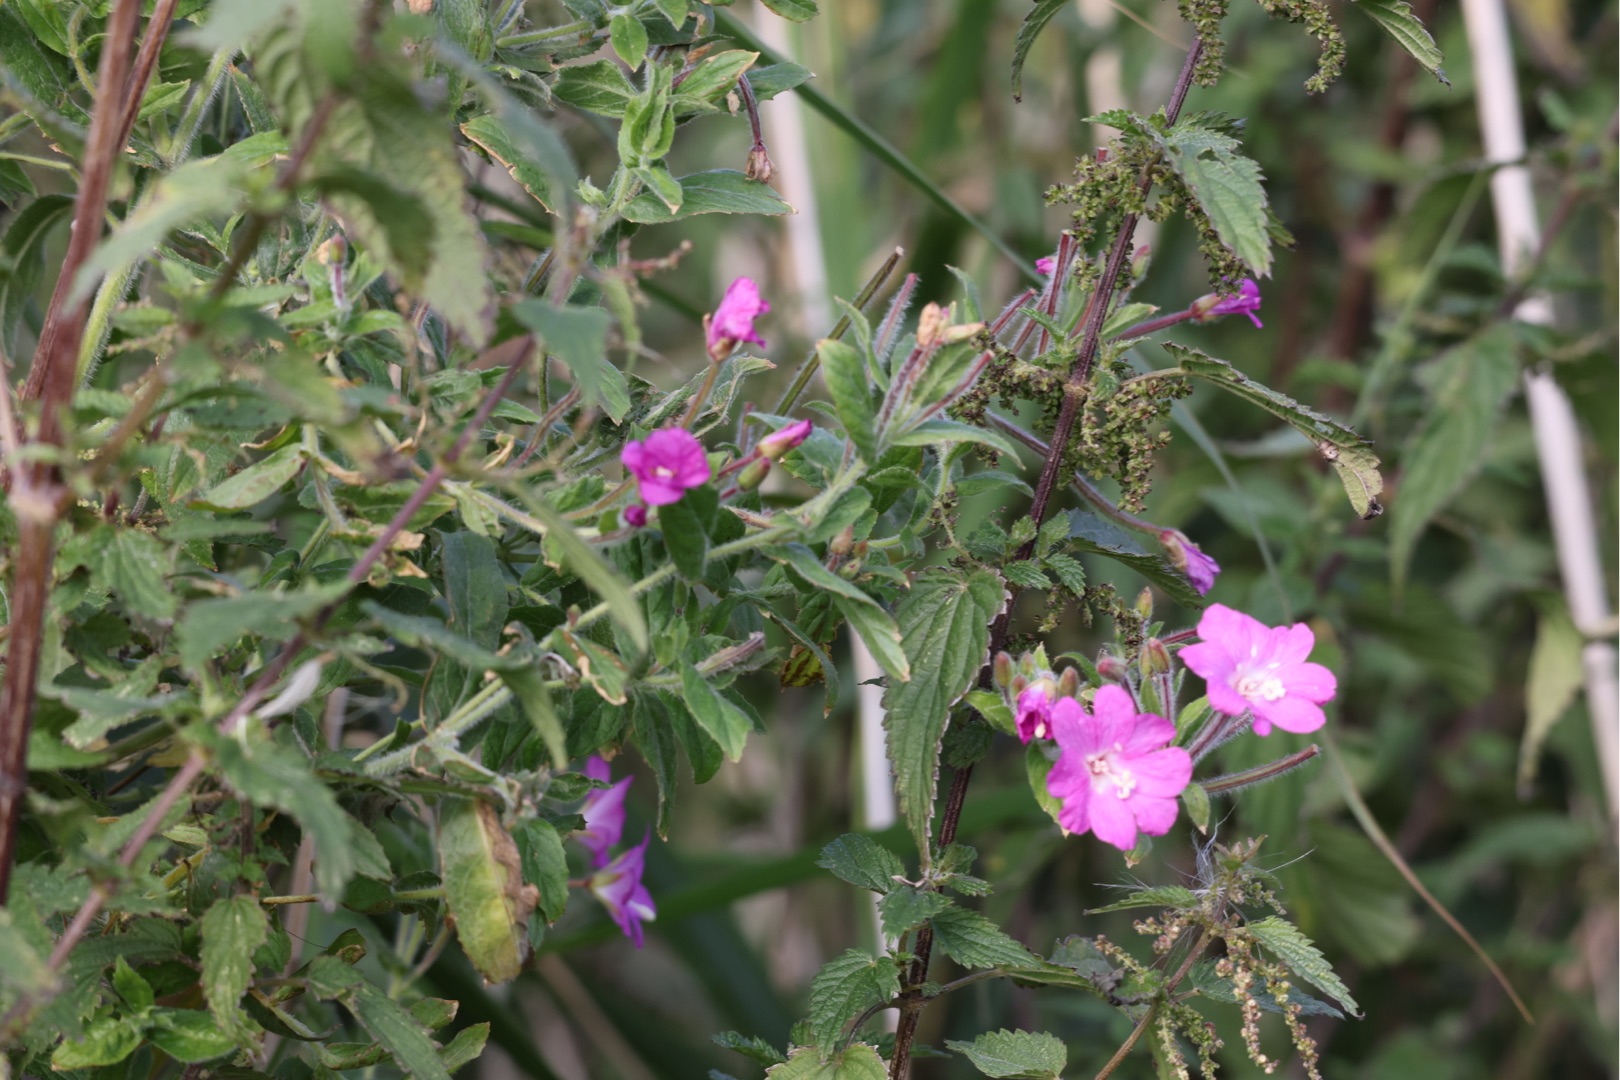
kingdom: Plantae
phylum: Tracheophyta
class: Magnoliopsida
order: Myrtales
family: Onagraceae
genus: Epilobium
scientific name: Epilobium hirsutum
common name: Lådden dueurt
